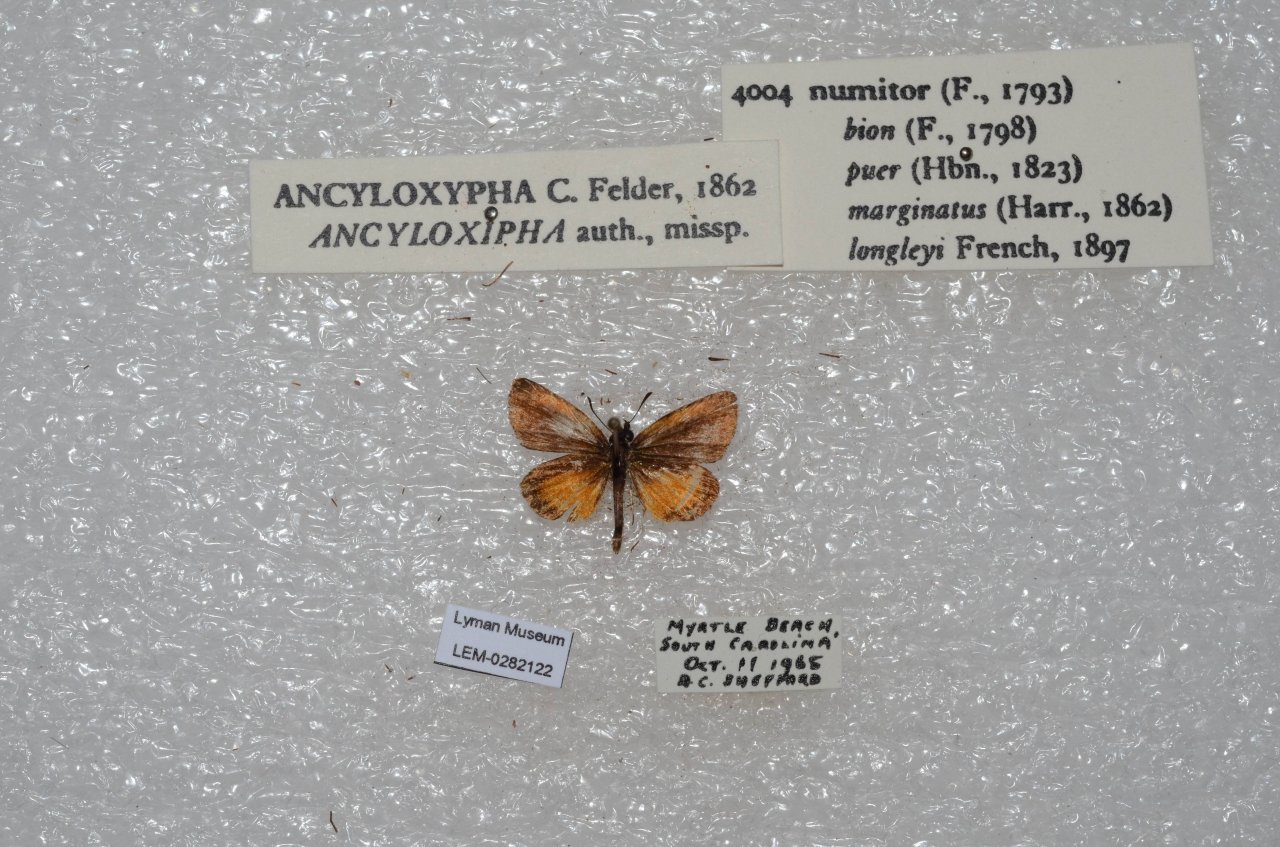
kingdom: Animalia
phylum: Arthropoda
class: Insecta
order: Lepidoptera
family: Hesperiidae
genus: Ancyloxypha
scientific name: Ancyloxypha numitor
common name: Least Skipper
